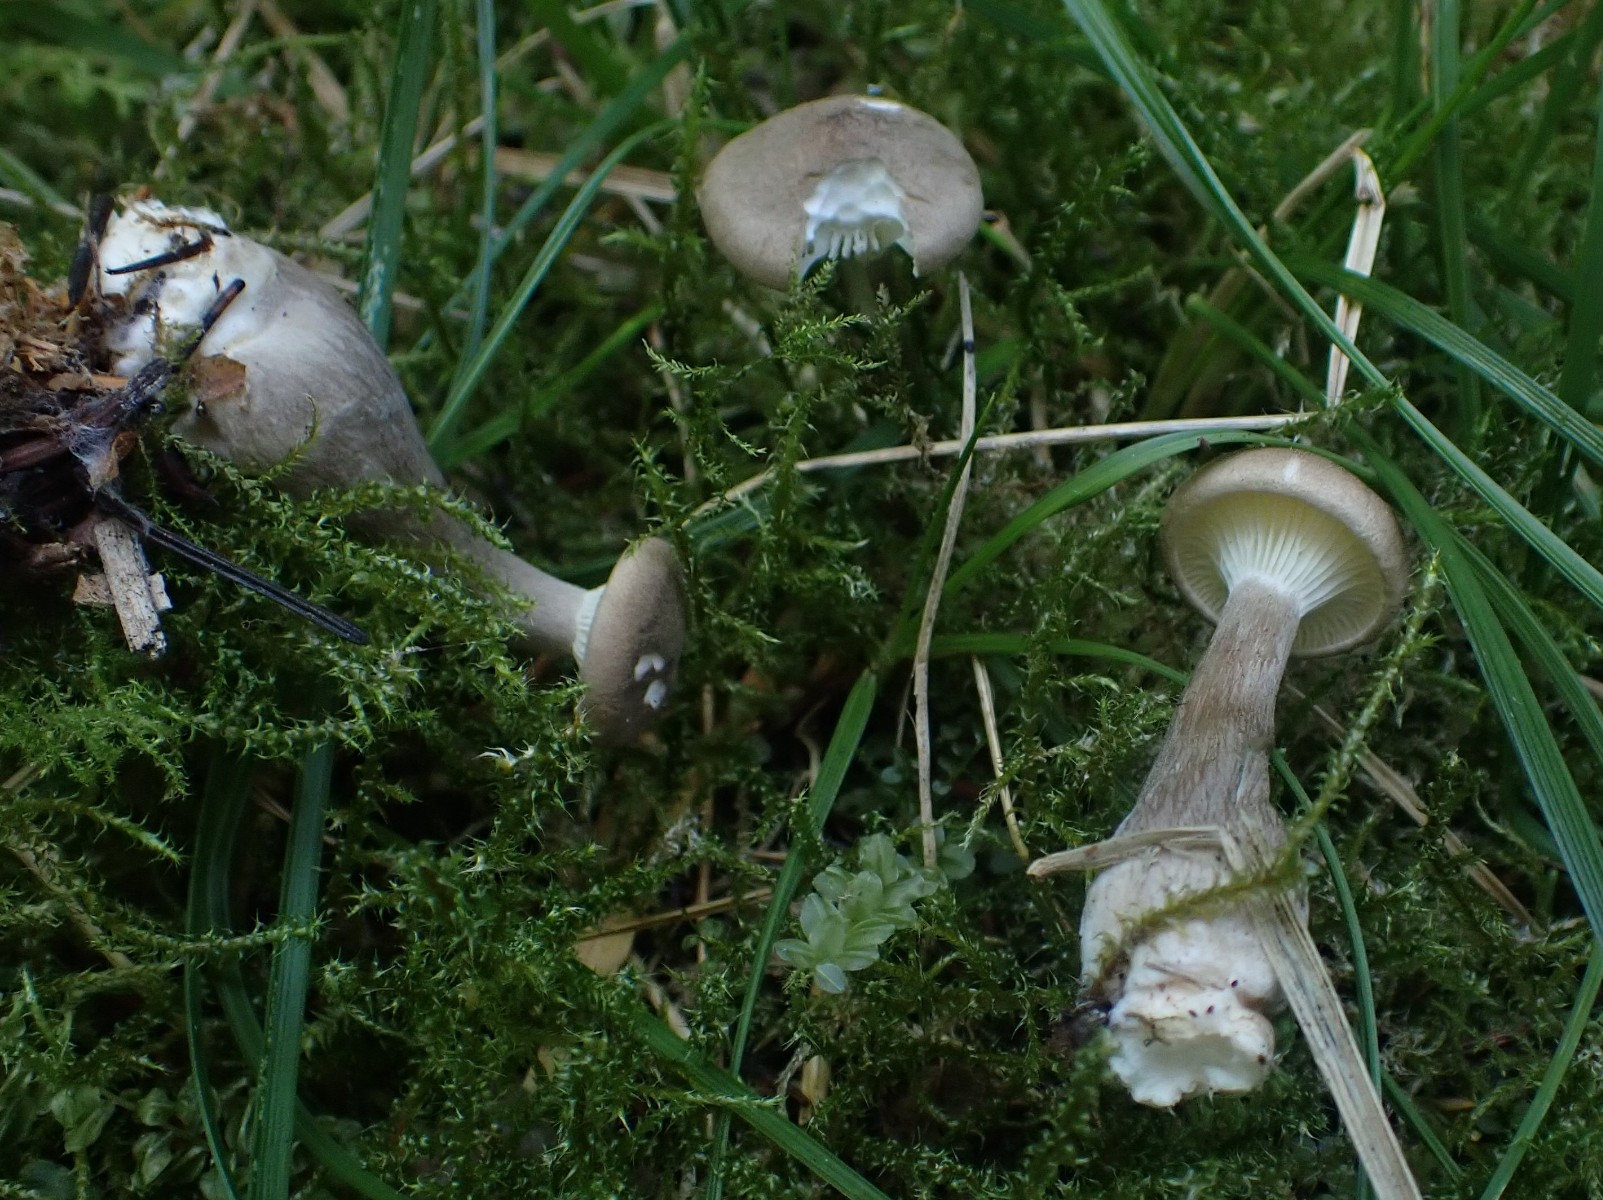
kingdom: Fungi
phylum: Basidiomycota
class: Agaricomycetes
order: Agaricales
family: Hygrophoraceae
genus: Ampulloclitocybe
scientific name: Ampulloclitocybe clavipes
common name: køllefod
